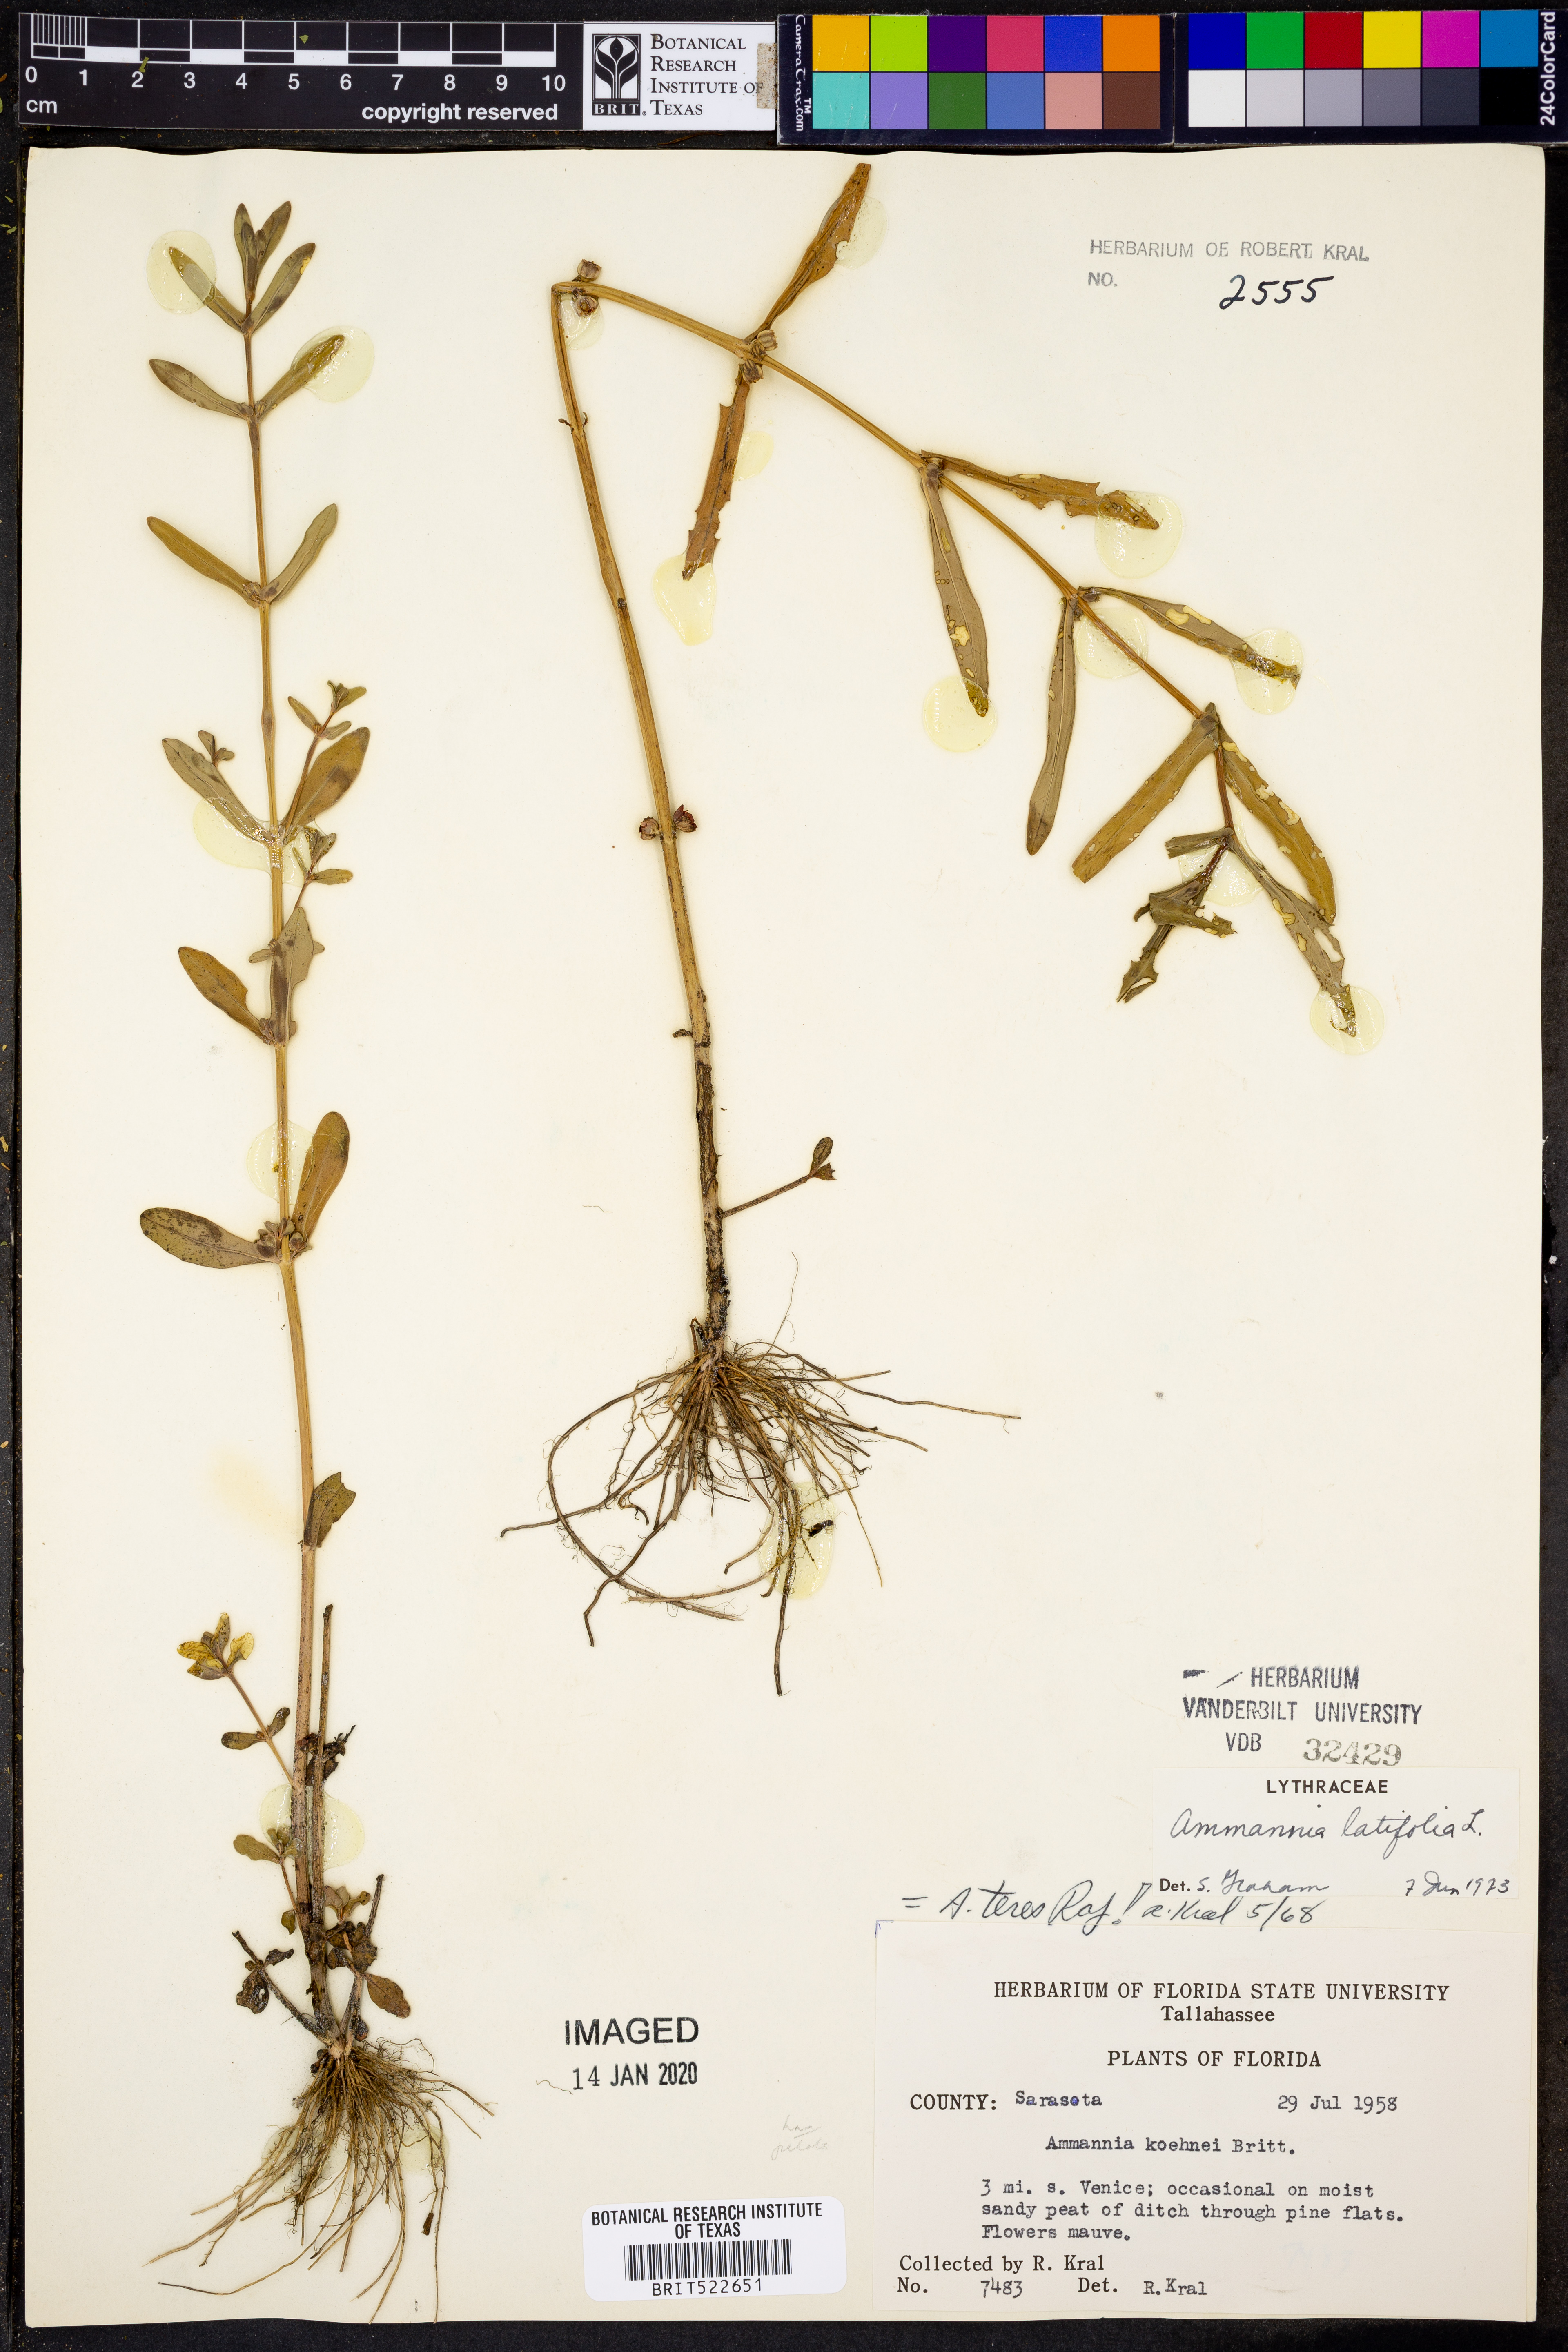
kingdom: Plantae
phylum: Tracheophyta
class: Magnoliopsida
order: Myrtales
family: Lythraceae
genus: Ammannia
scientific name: Ammannia latifolia
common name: Toothcup
